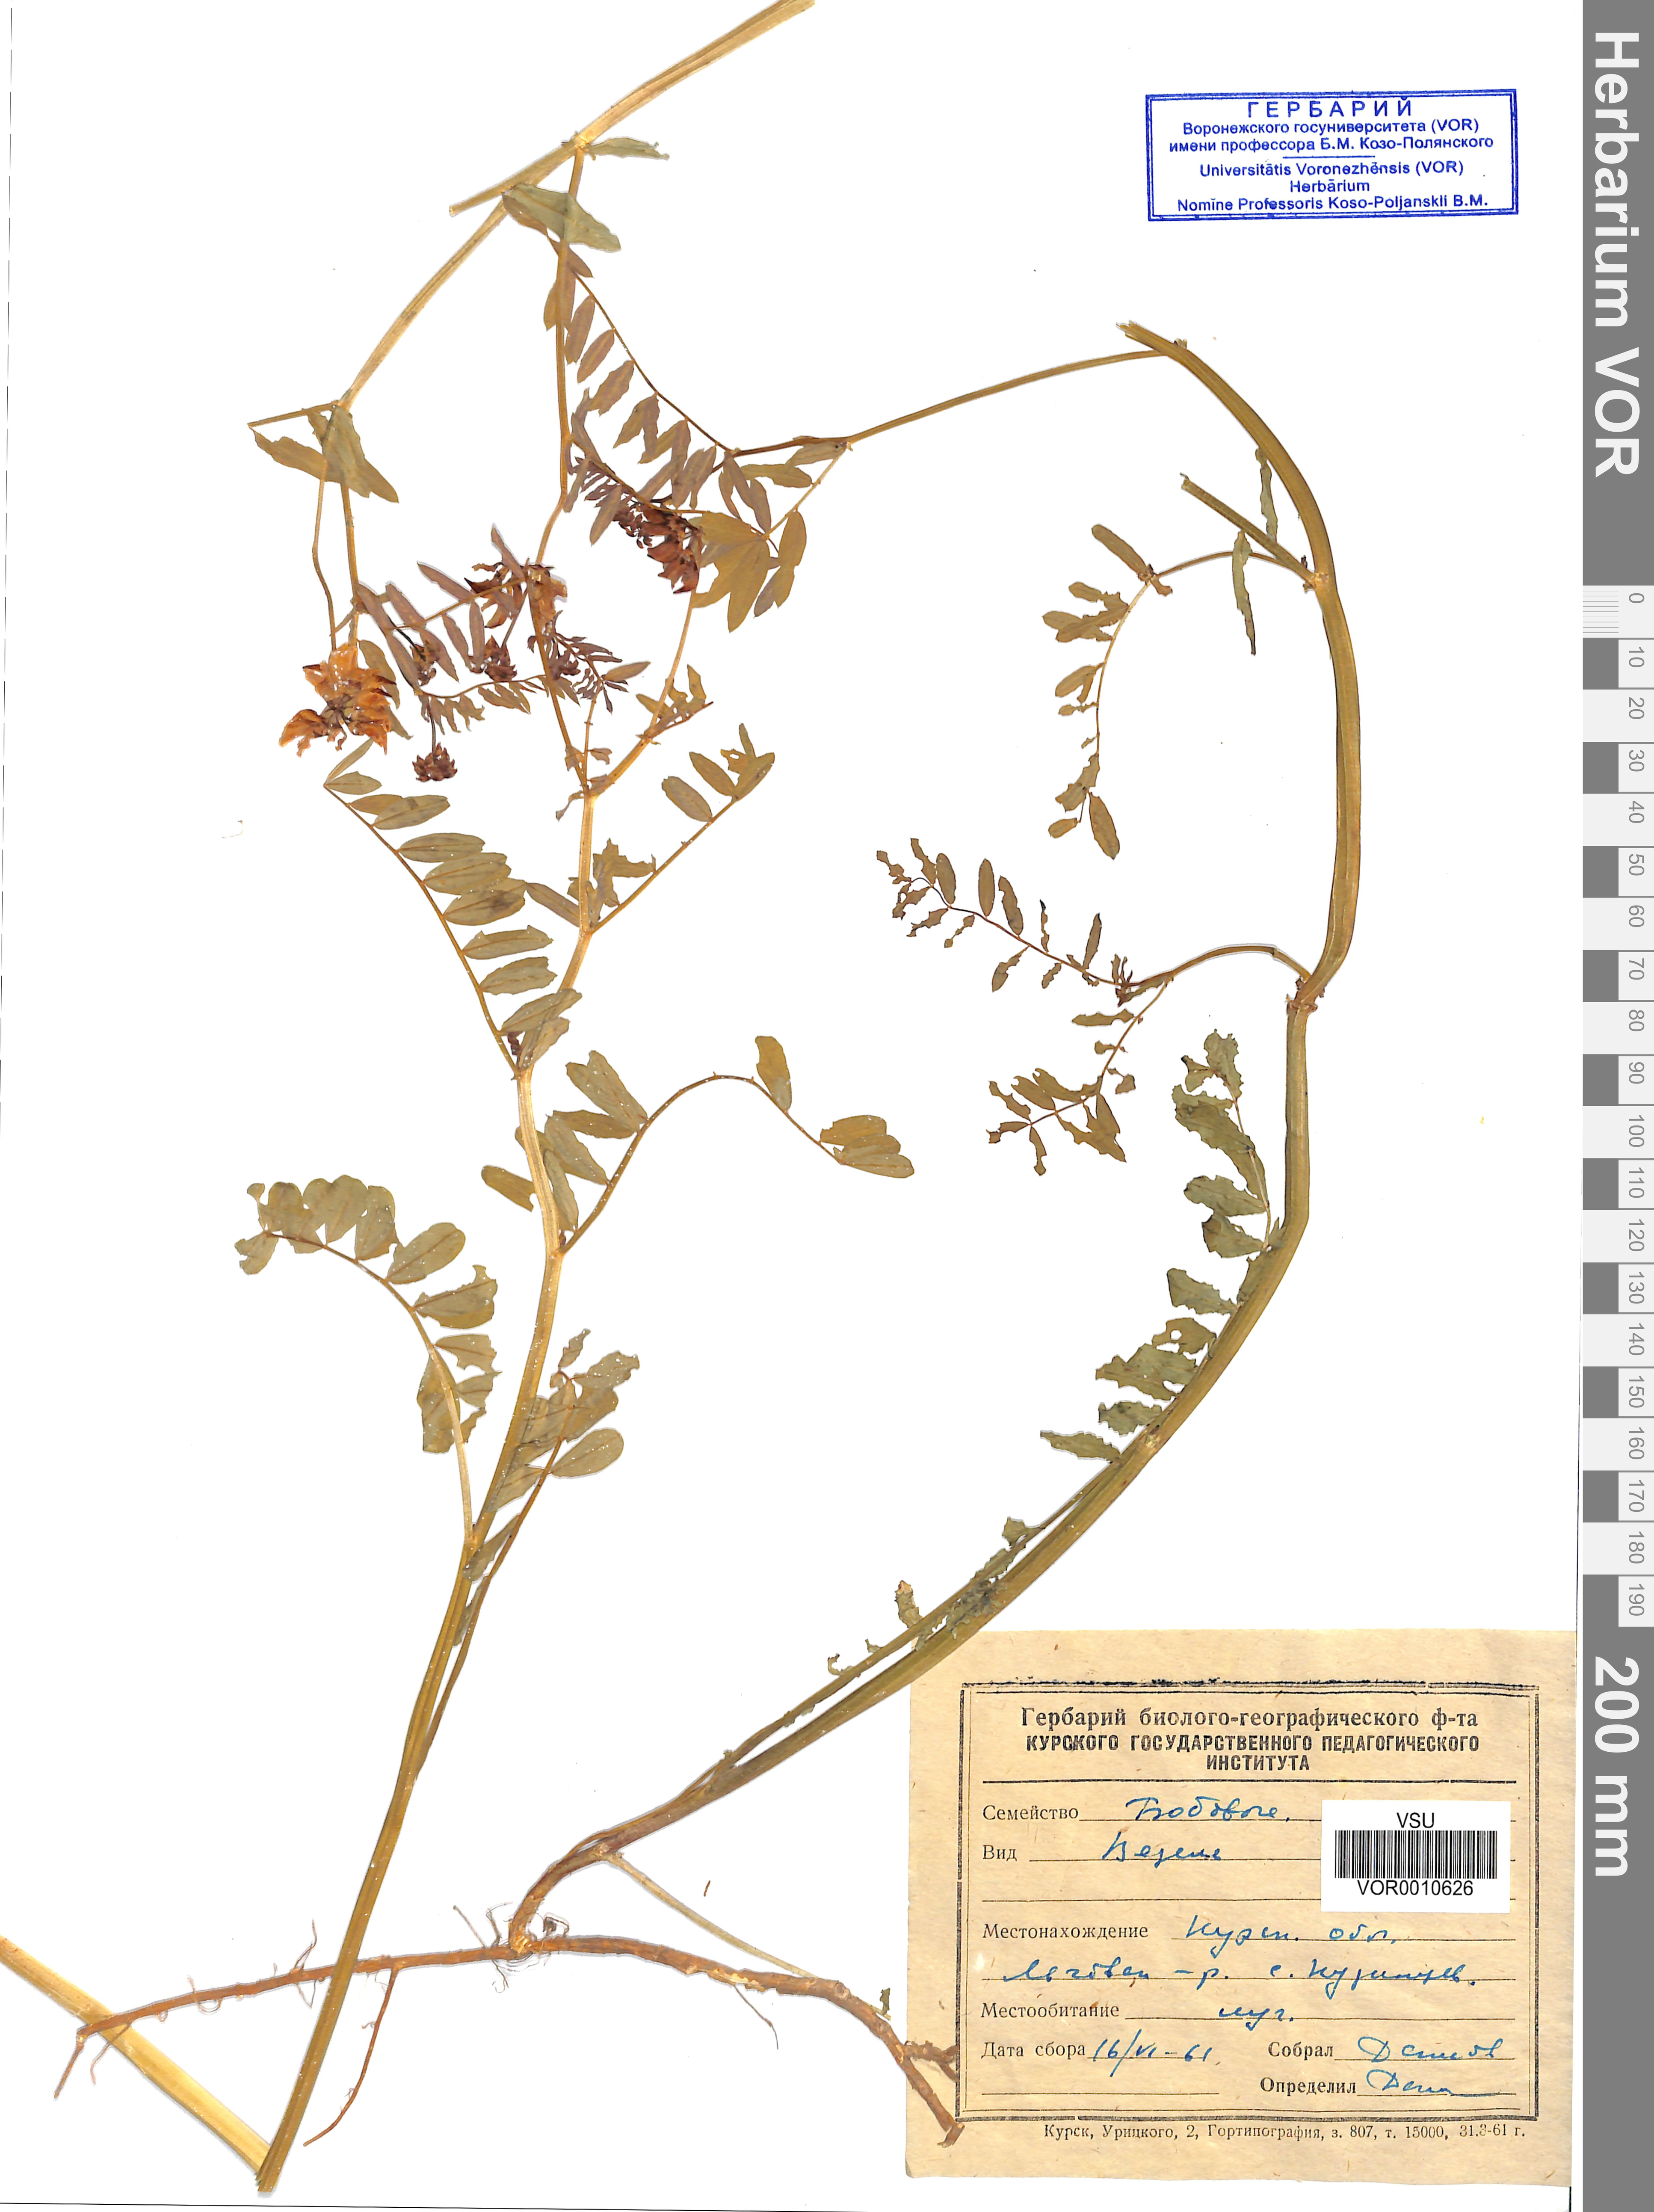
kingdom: Plantae
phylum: Tracheophyta
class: Magnoliopsida
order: Fabales
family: Fabaceae
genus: Coronilla
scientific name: Coronilla varia
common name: Crownvetch
